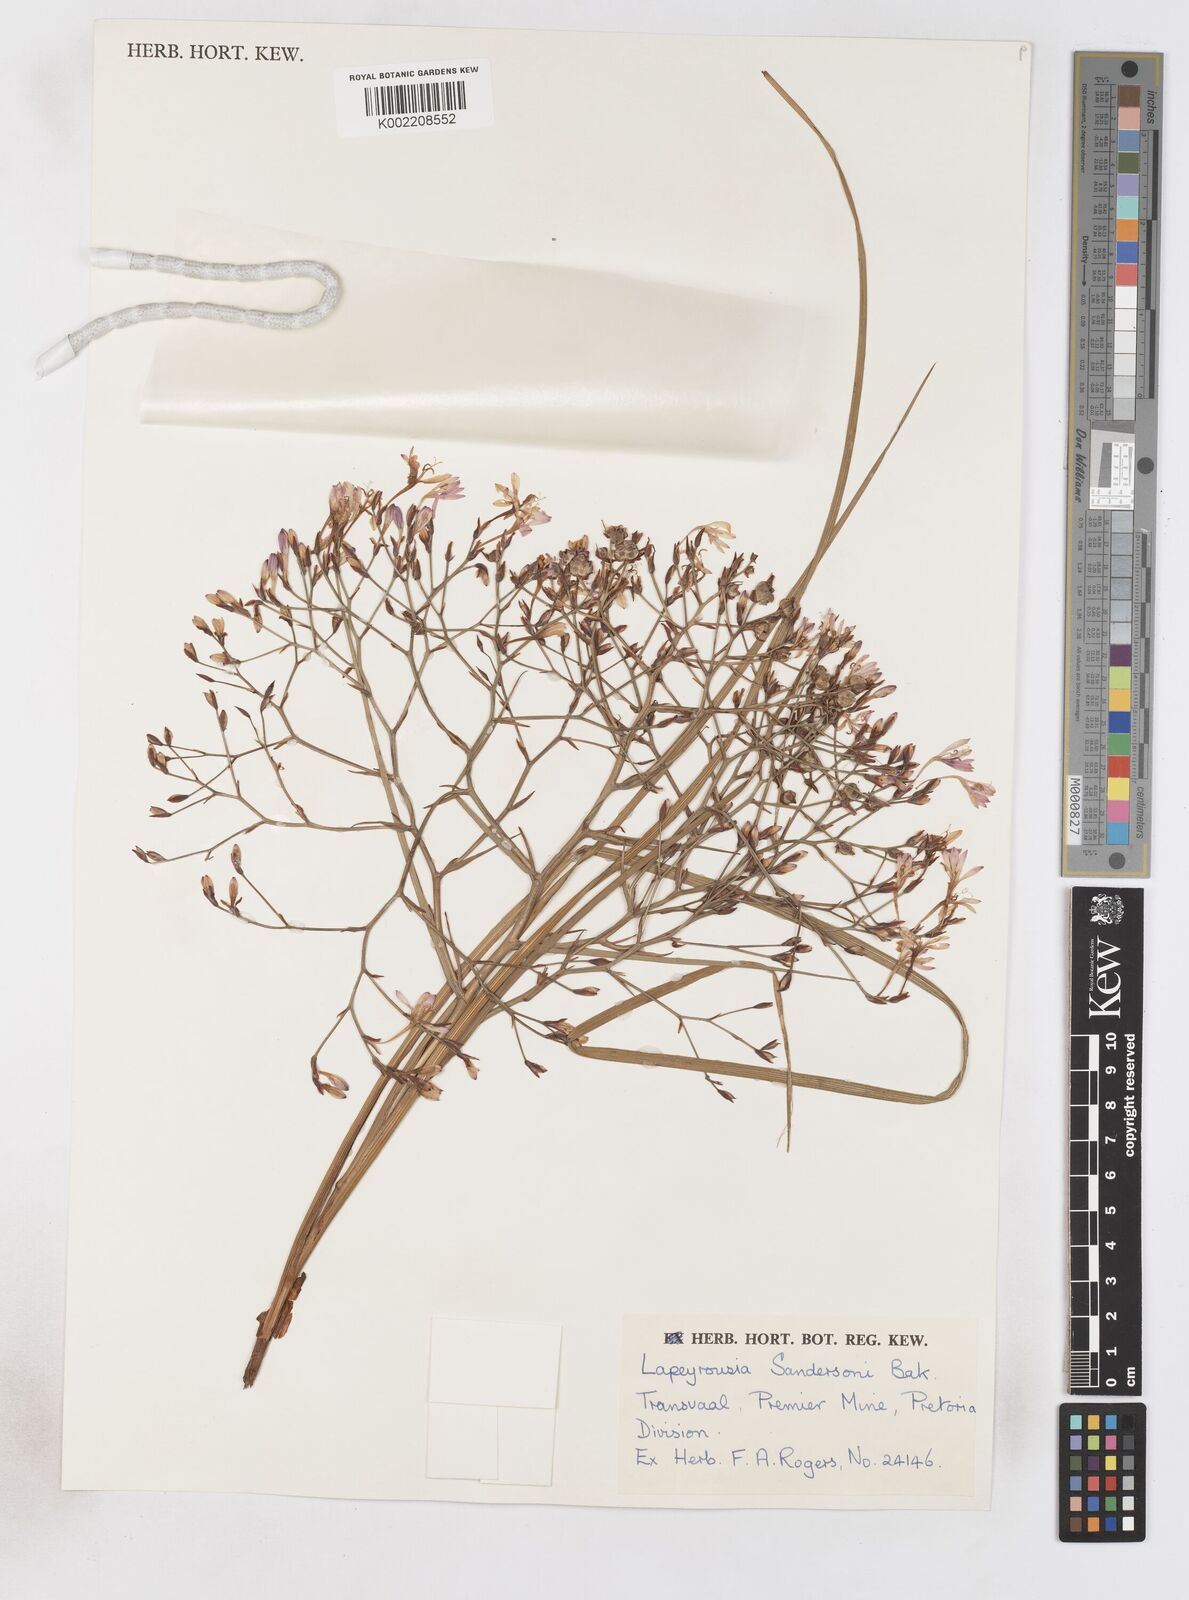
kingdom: Plantae
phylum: Tracheophyta
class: Liliopsida
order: Asparagales
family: Iridaceae
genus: Afrosolen
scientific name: Afrosolen sandersonii
